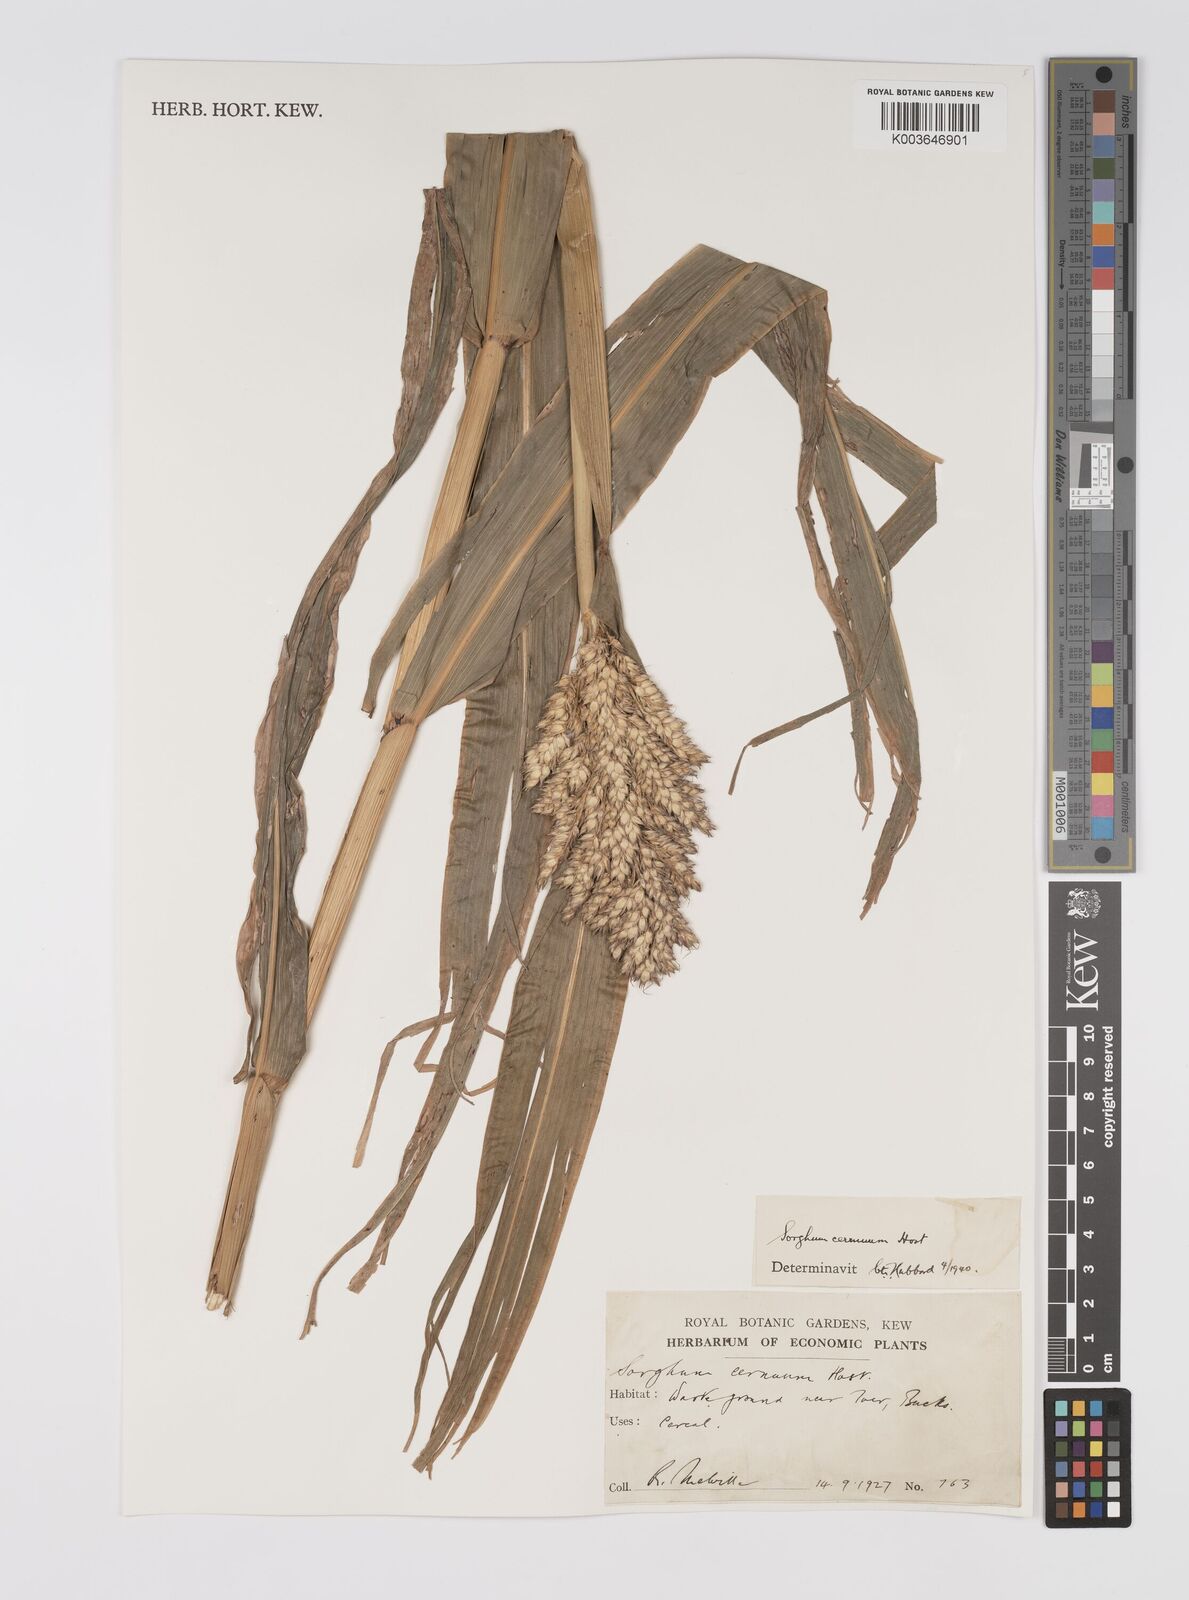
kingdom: Plantae
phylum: Tracheophyta
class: Liliopsida
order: Poales
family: Poaceae
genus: Sorghum
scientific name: Sorghum
